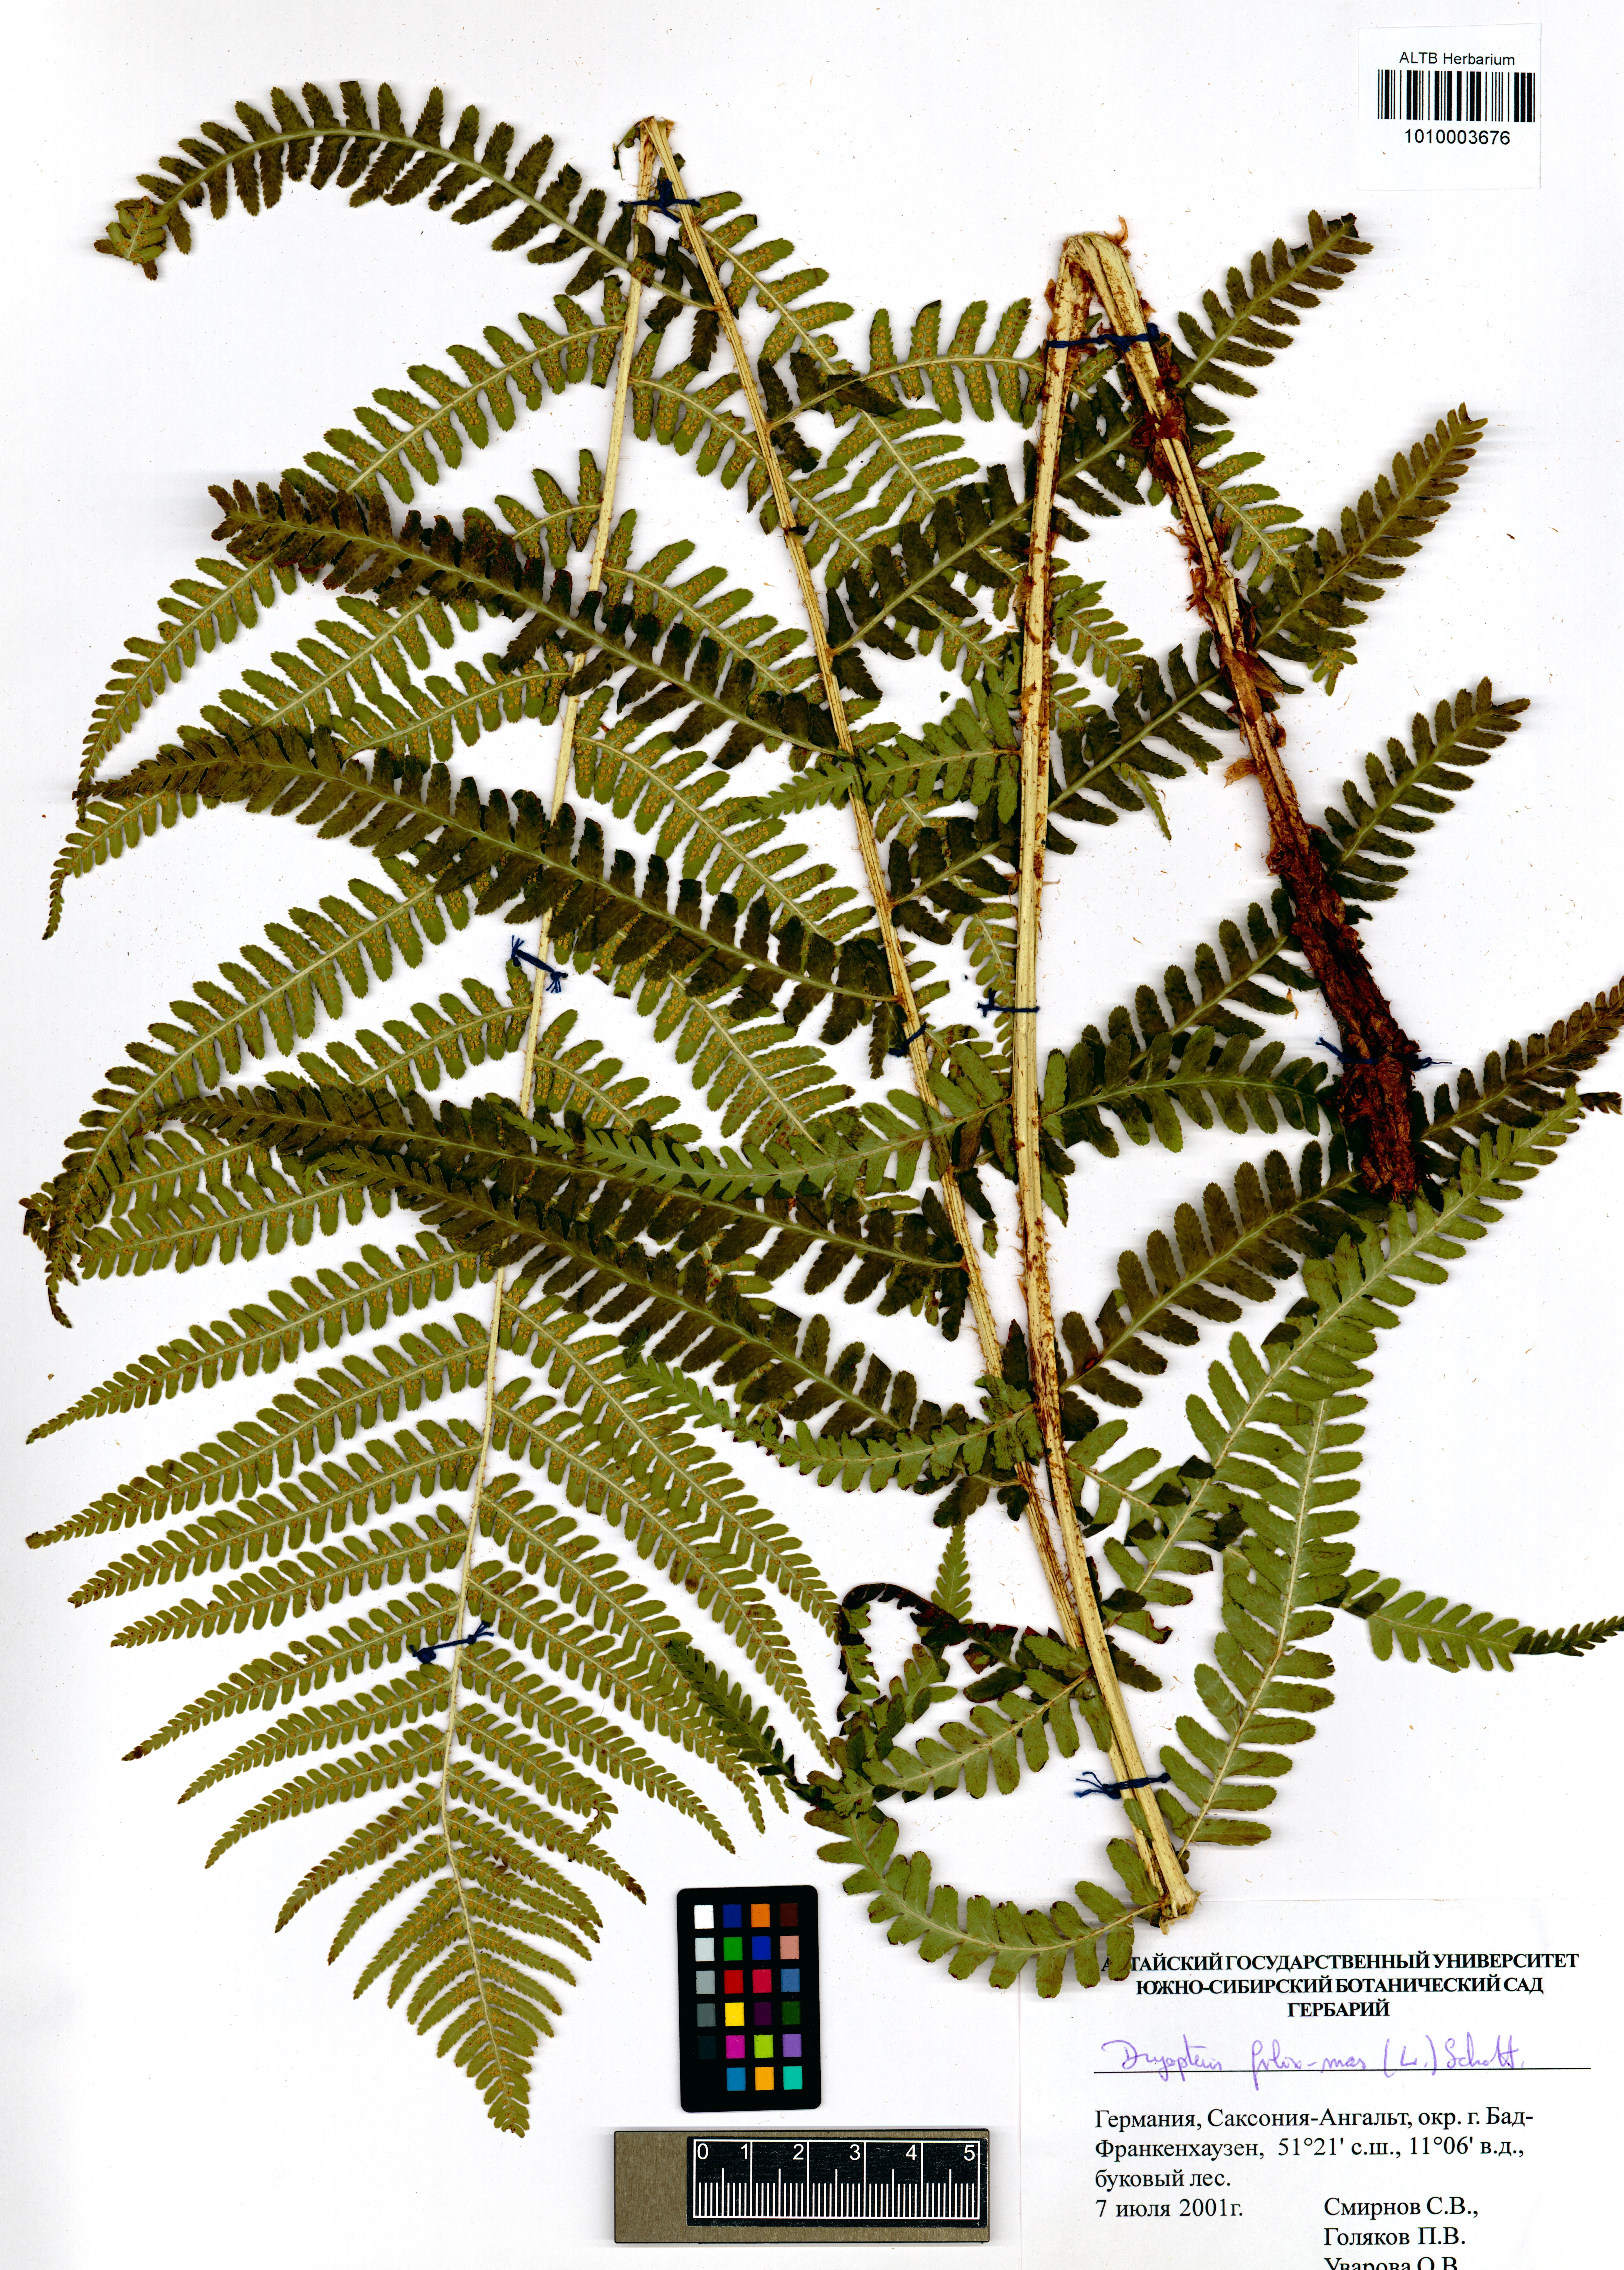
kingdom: Plantae
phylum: Tracheophyta
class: Polypodiopsida
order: Polypodiales
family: Dryopteridaceae
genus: Dryopteris
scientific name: Dryopteris filix-mas
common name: Male fern
